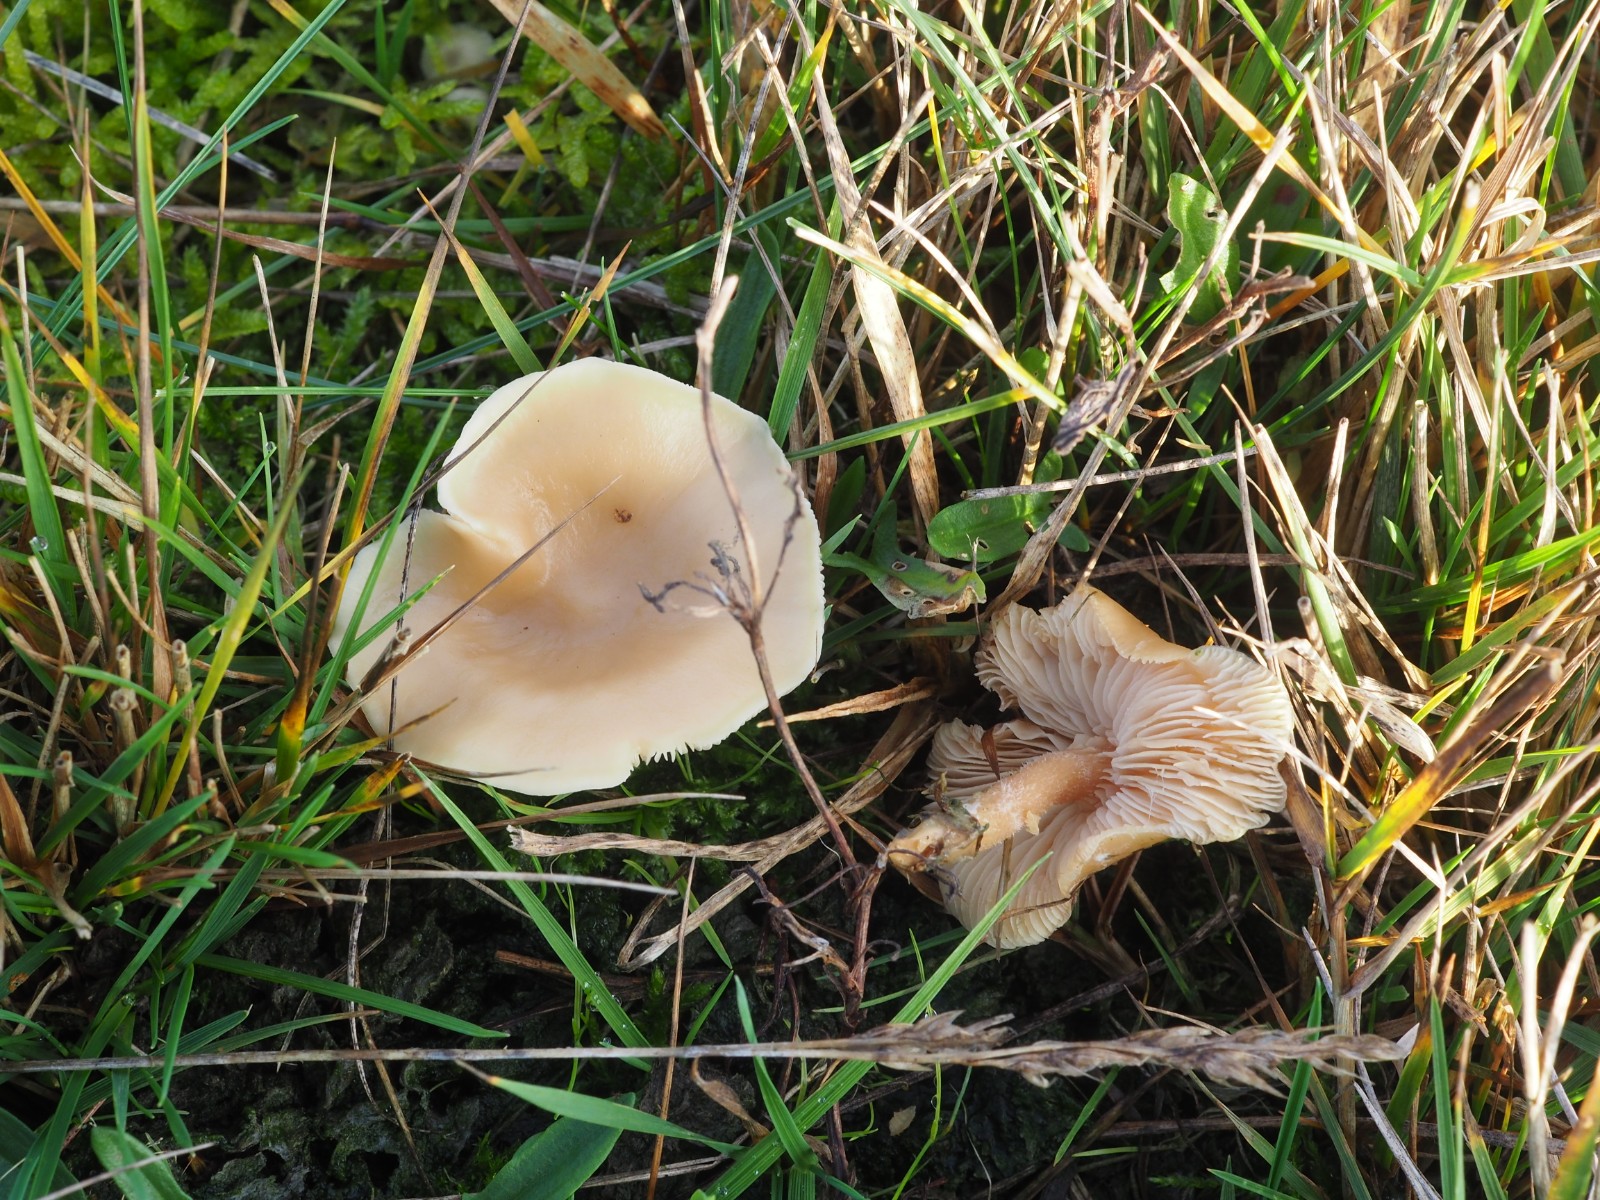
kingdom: Fungi
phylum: Basidiomycota
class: Agaricomycetes
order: Agaricales
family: Tricholomataceae
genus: Clitocybe
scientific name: Clitocybe amarescens
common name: gødnings-tragthat
